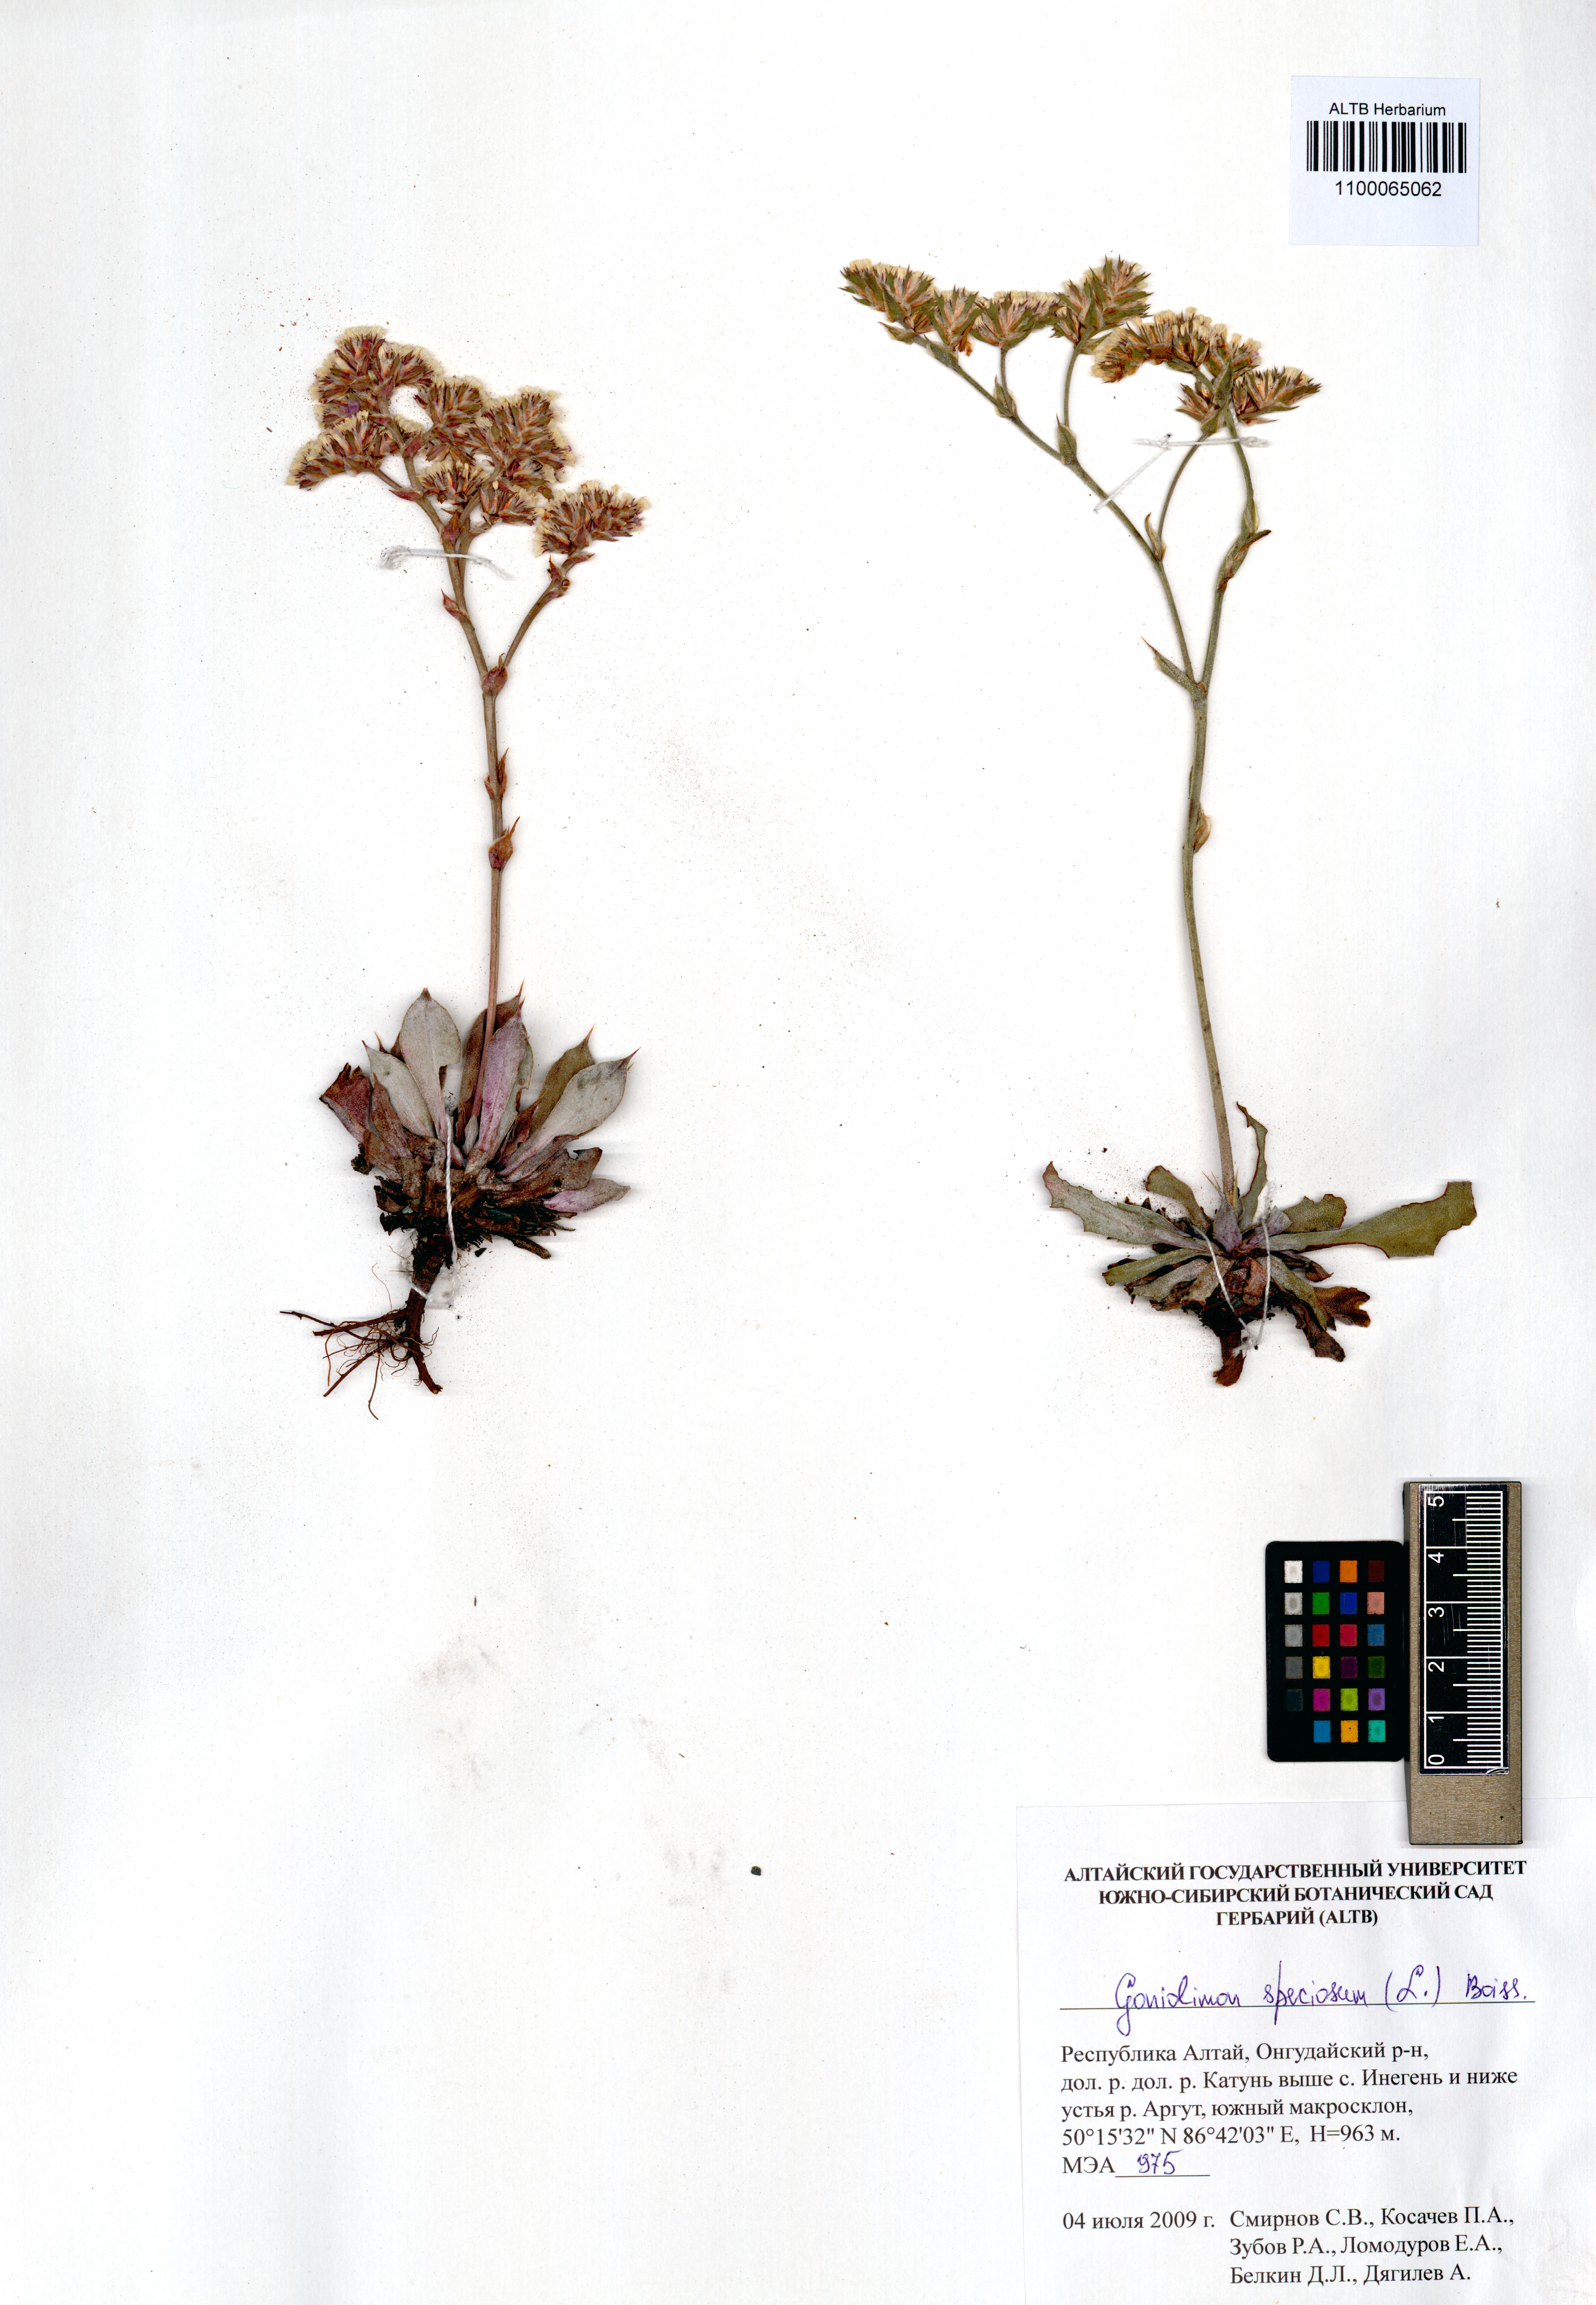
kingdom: Plantae
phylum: Tracheophyta
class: Magnoliopsida
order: Caryophyllales
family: Plumbaginaceae
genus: Goniolimon
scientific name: Goniolimon speciosum
